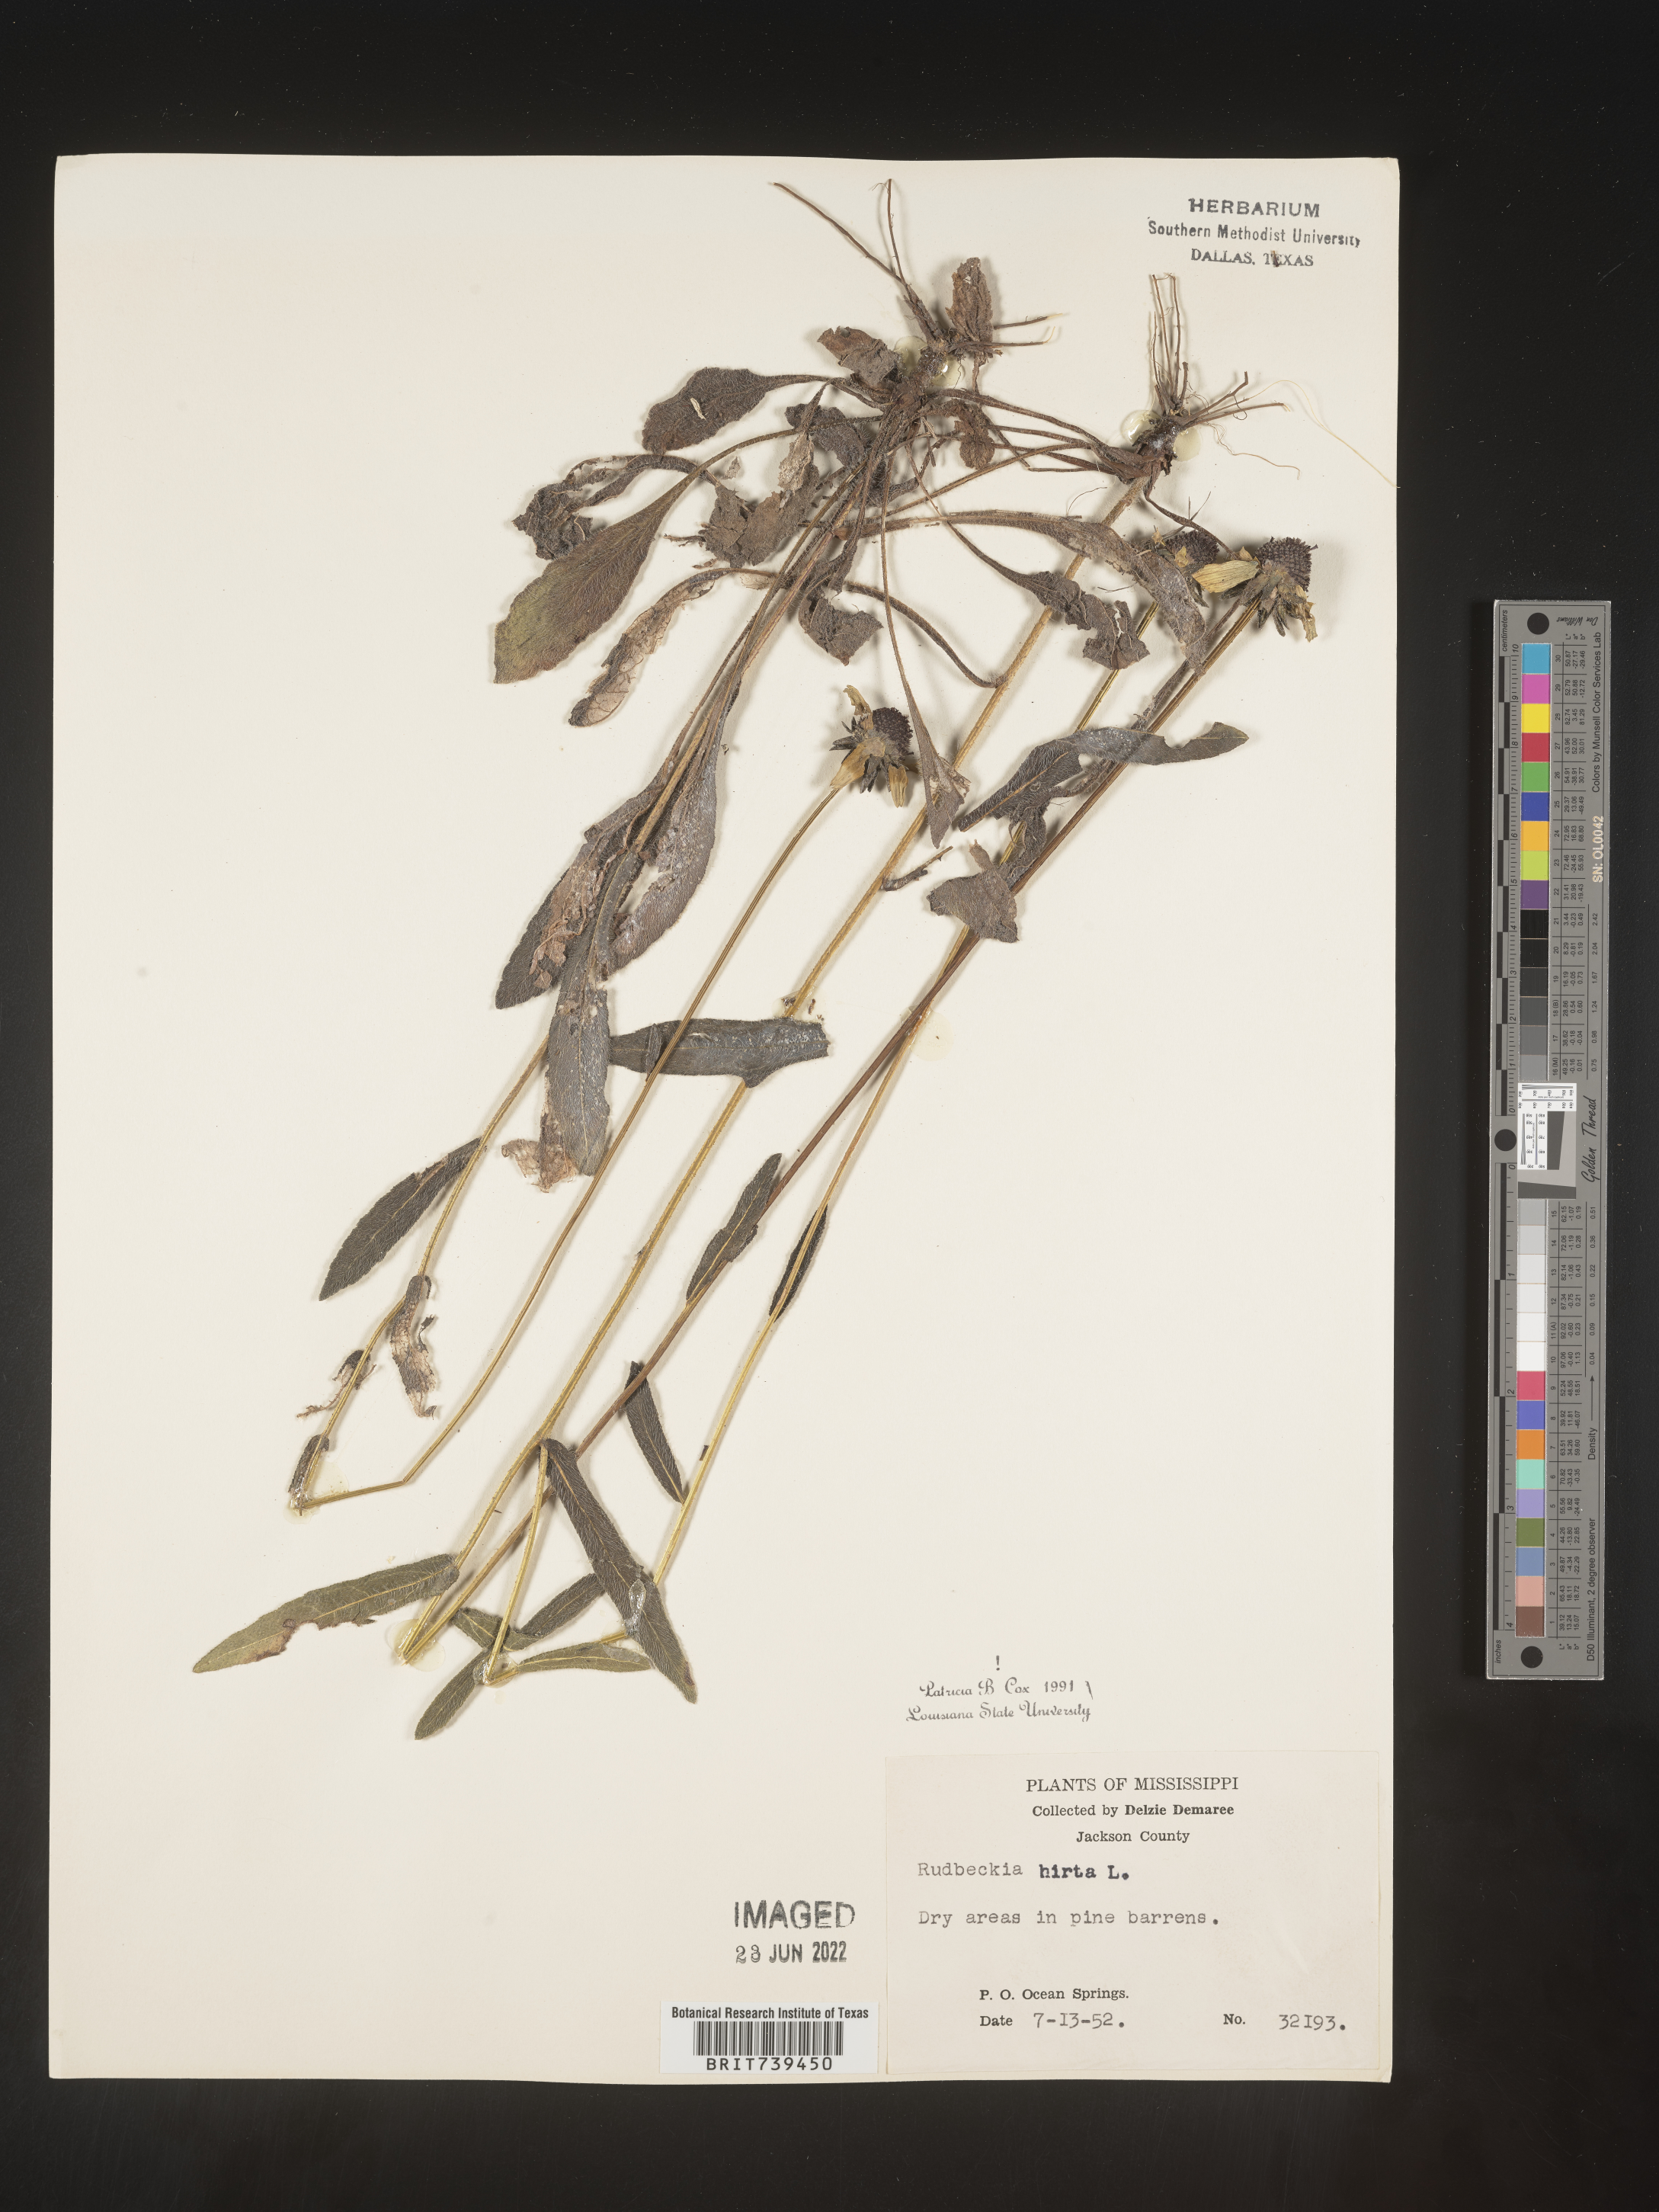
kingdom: Plantae
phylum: Tracheophyta
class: Magnoliopsida
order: Asterales
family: Asteraceae
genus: Rudbeckia
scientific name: Rudbeckia hirta
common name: Black-eyed-susan
